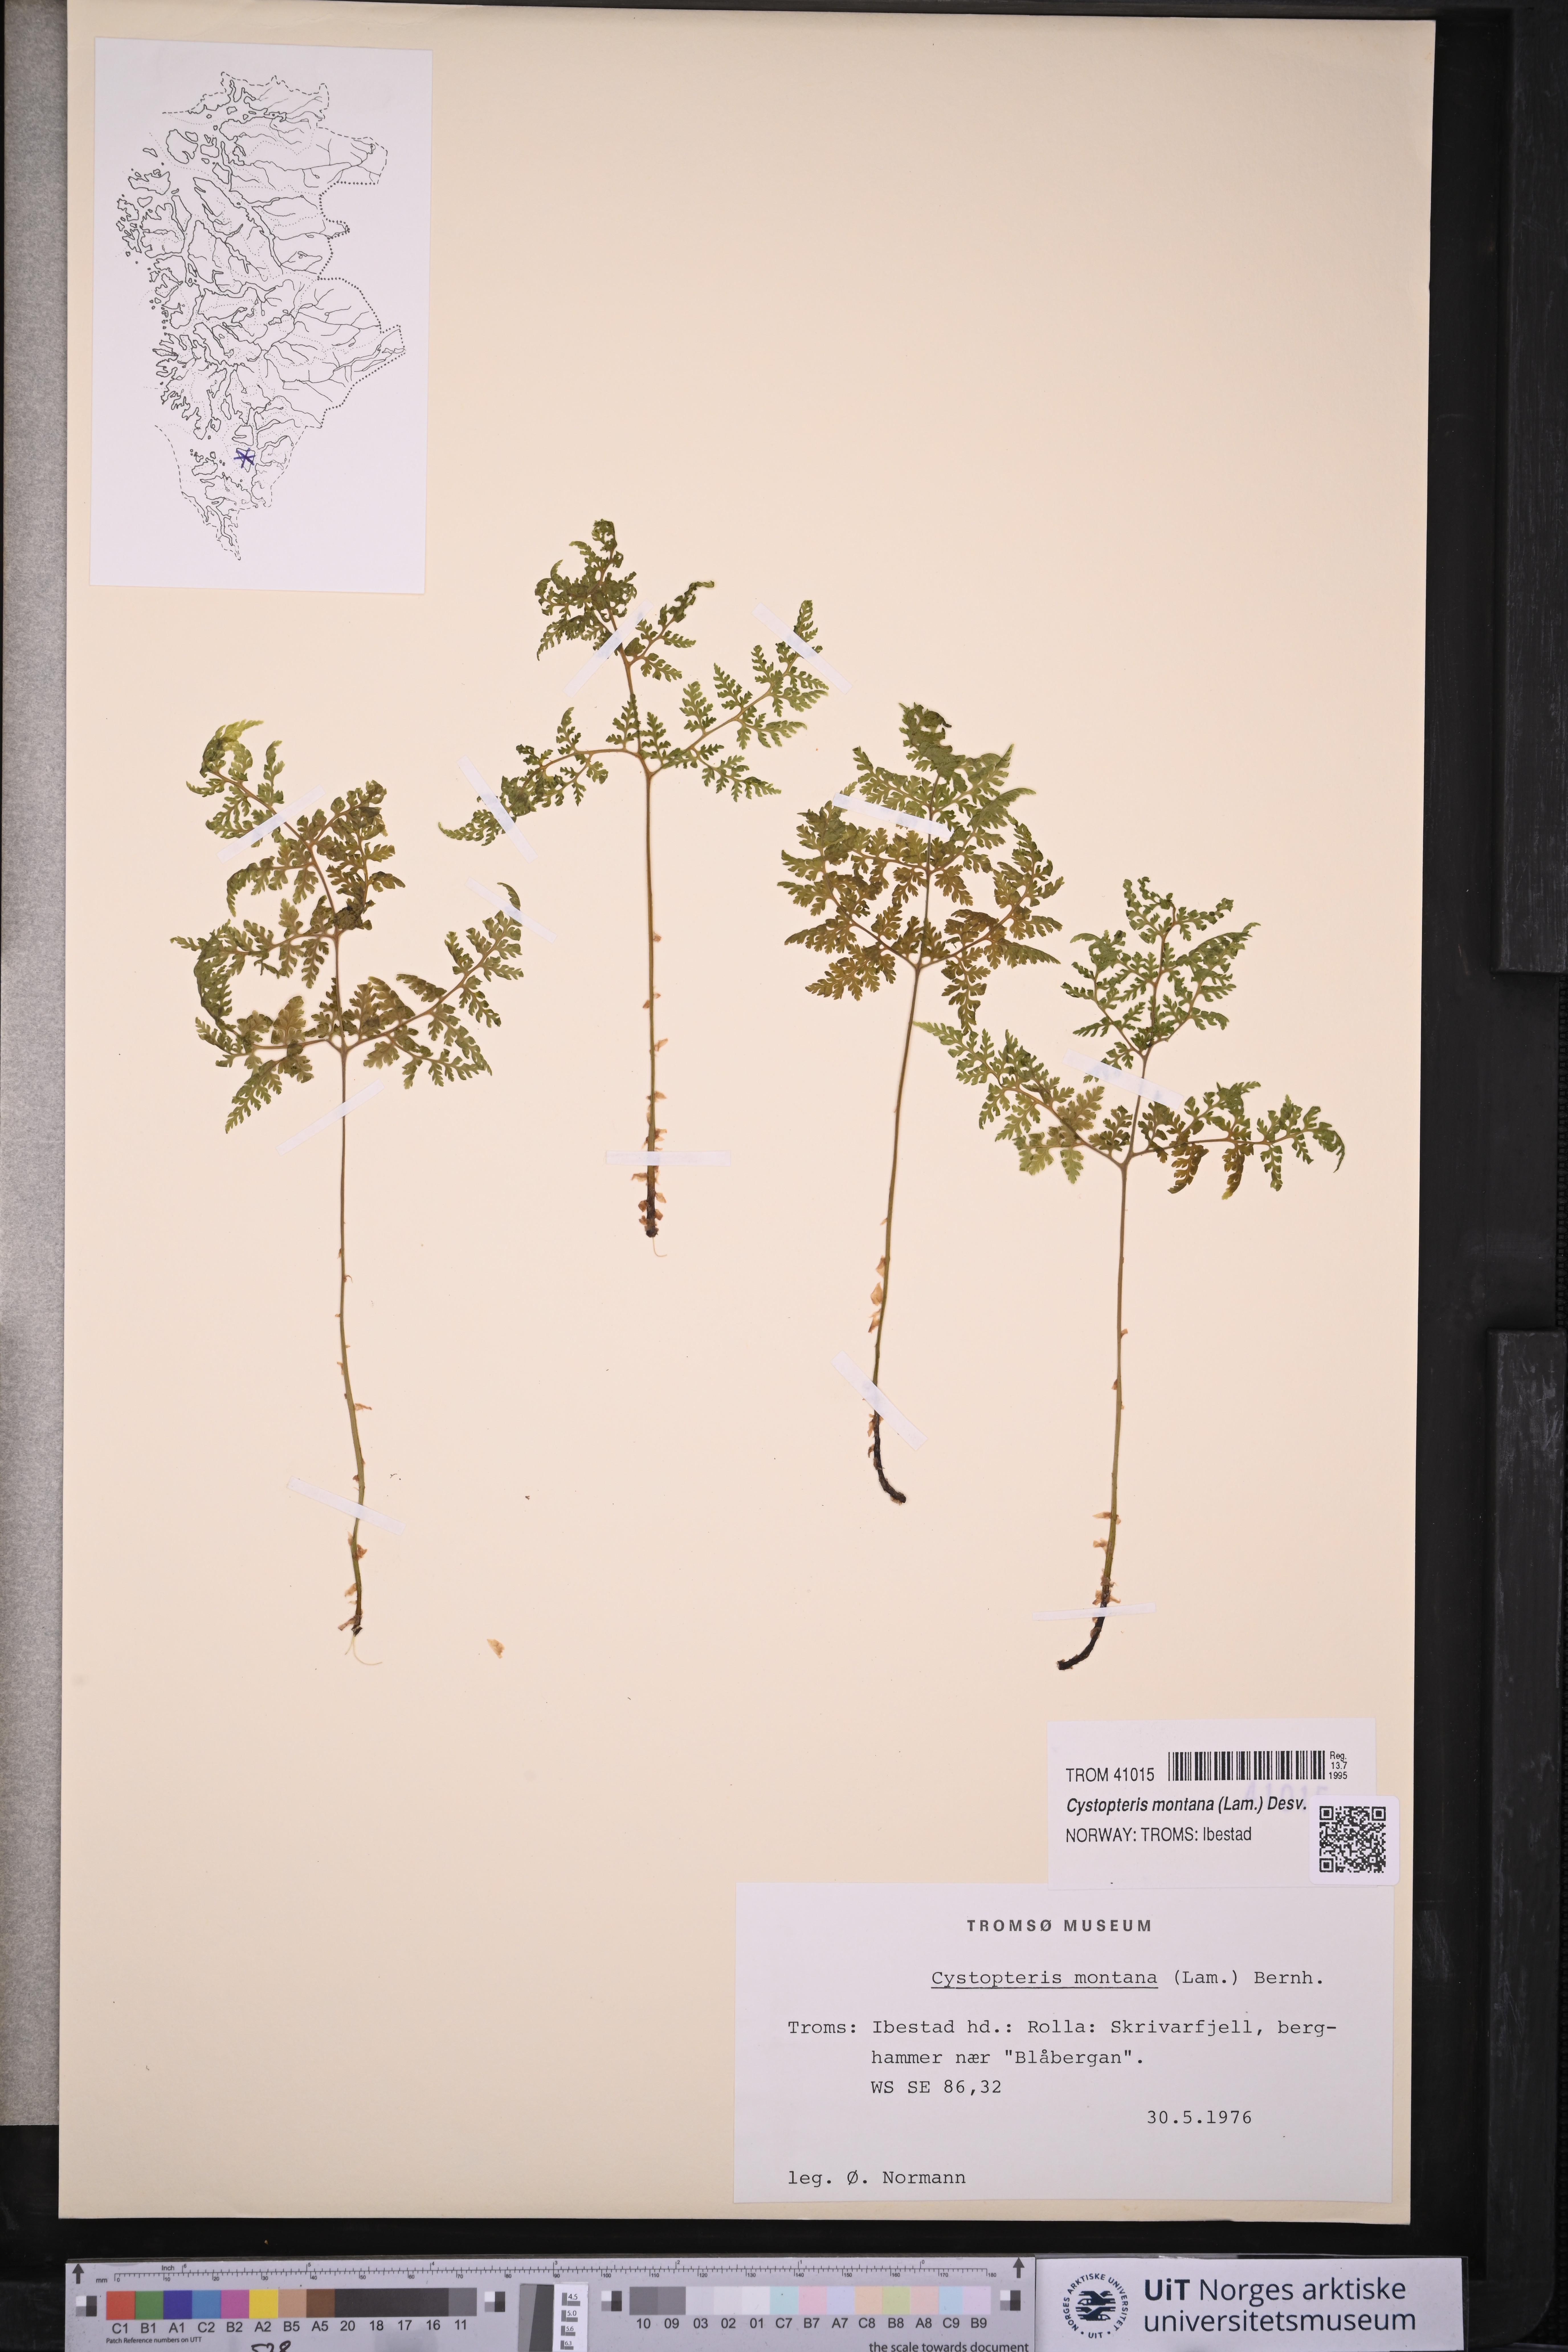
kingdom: Plantae
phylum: Tracheophyta
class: Polypodiopsida
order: Polypodiales
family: Cystopteridaceae
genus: Cystopteris
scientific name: Cystopteris montana
